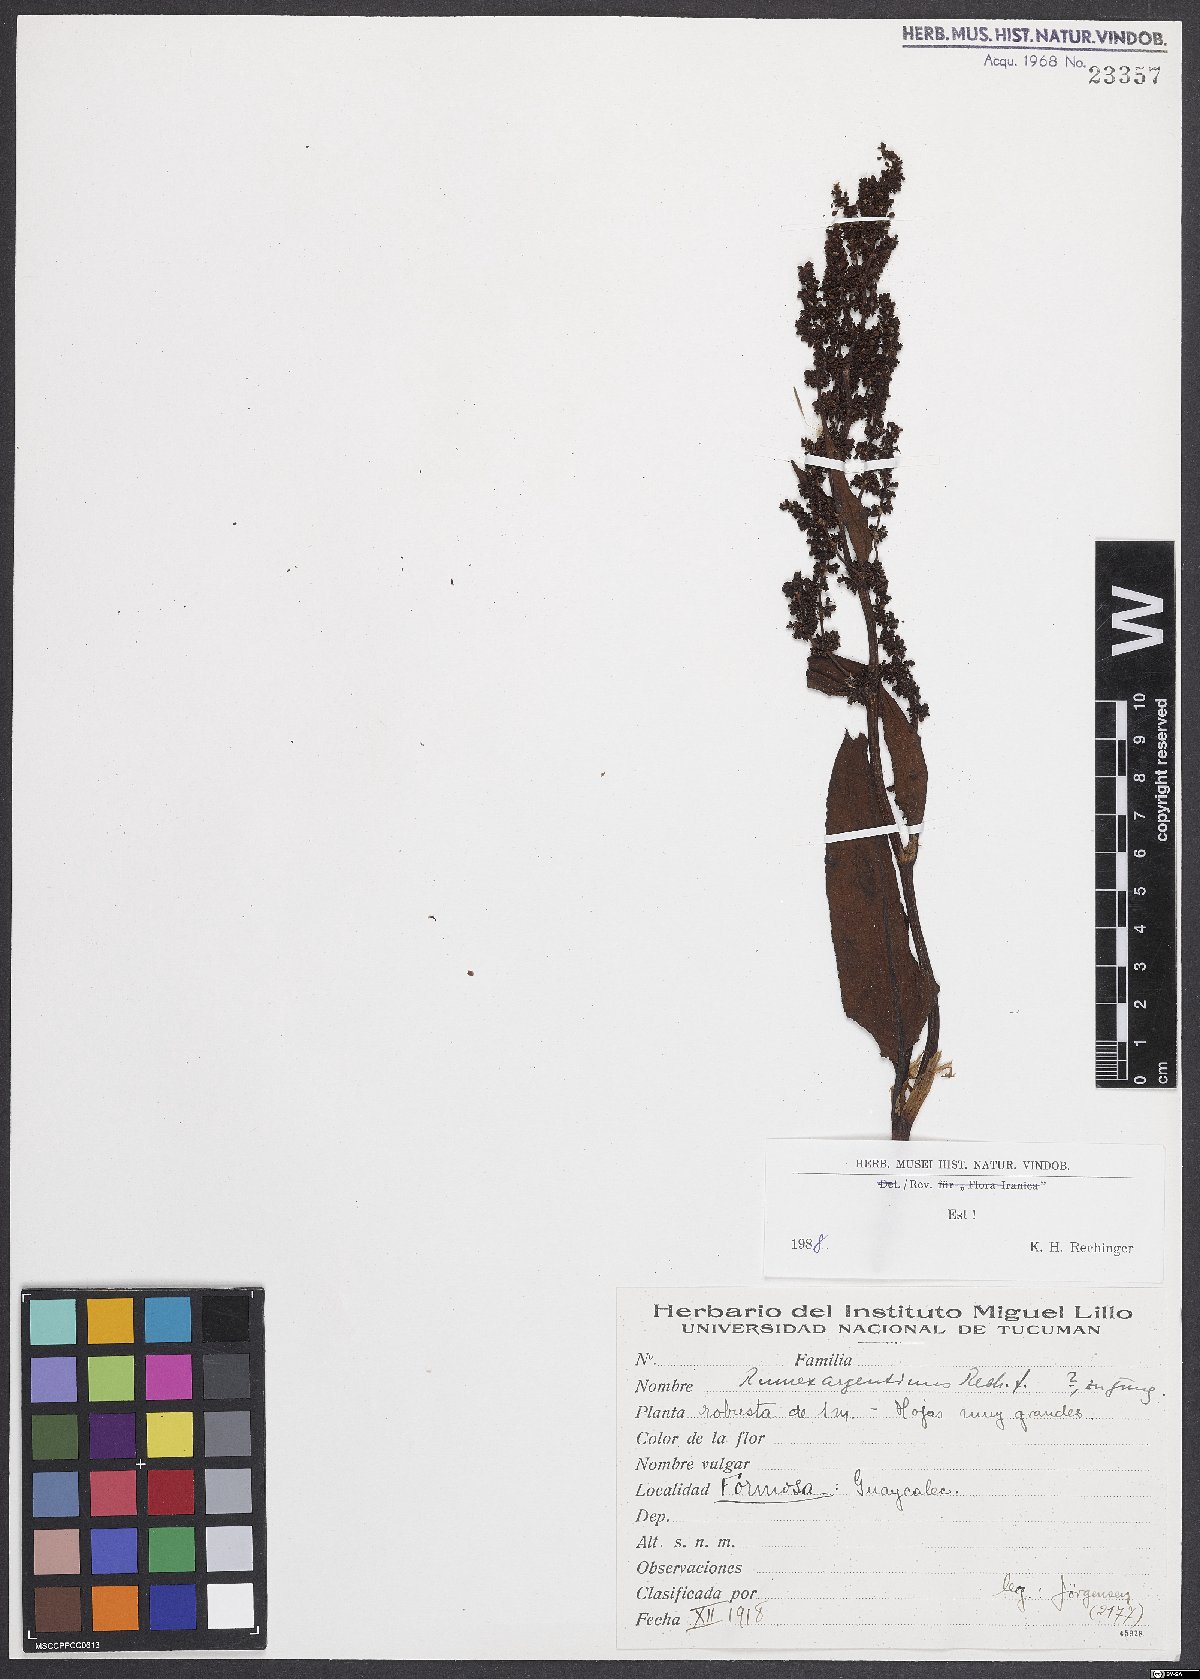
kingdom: Plantae
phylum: Tracheophyta
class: Magnoliopsida
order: Caryophyllales
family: Polygonaceae
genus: Rumex
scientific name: Rumex argentinus
